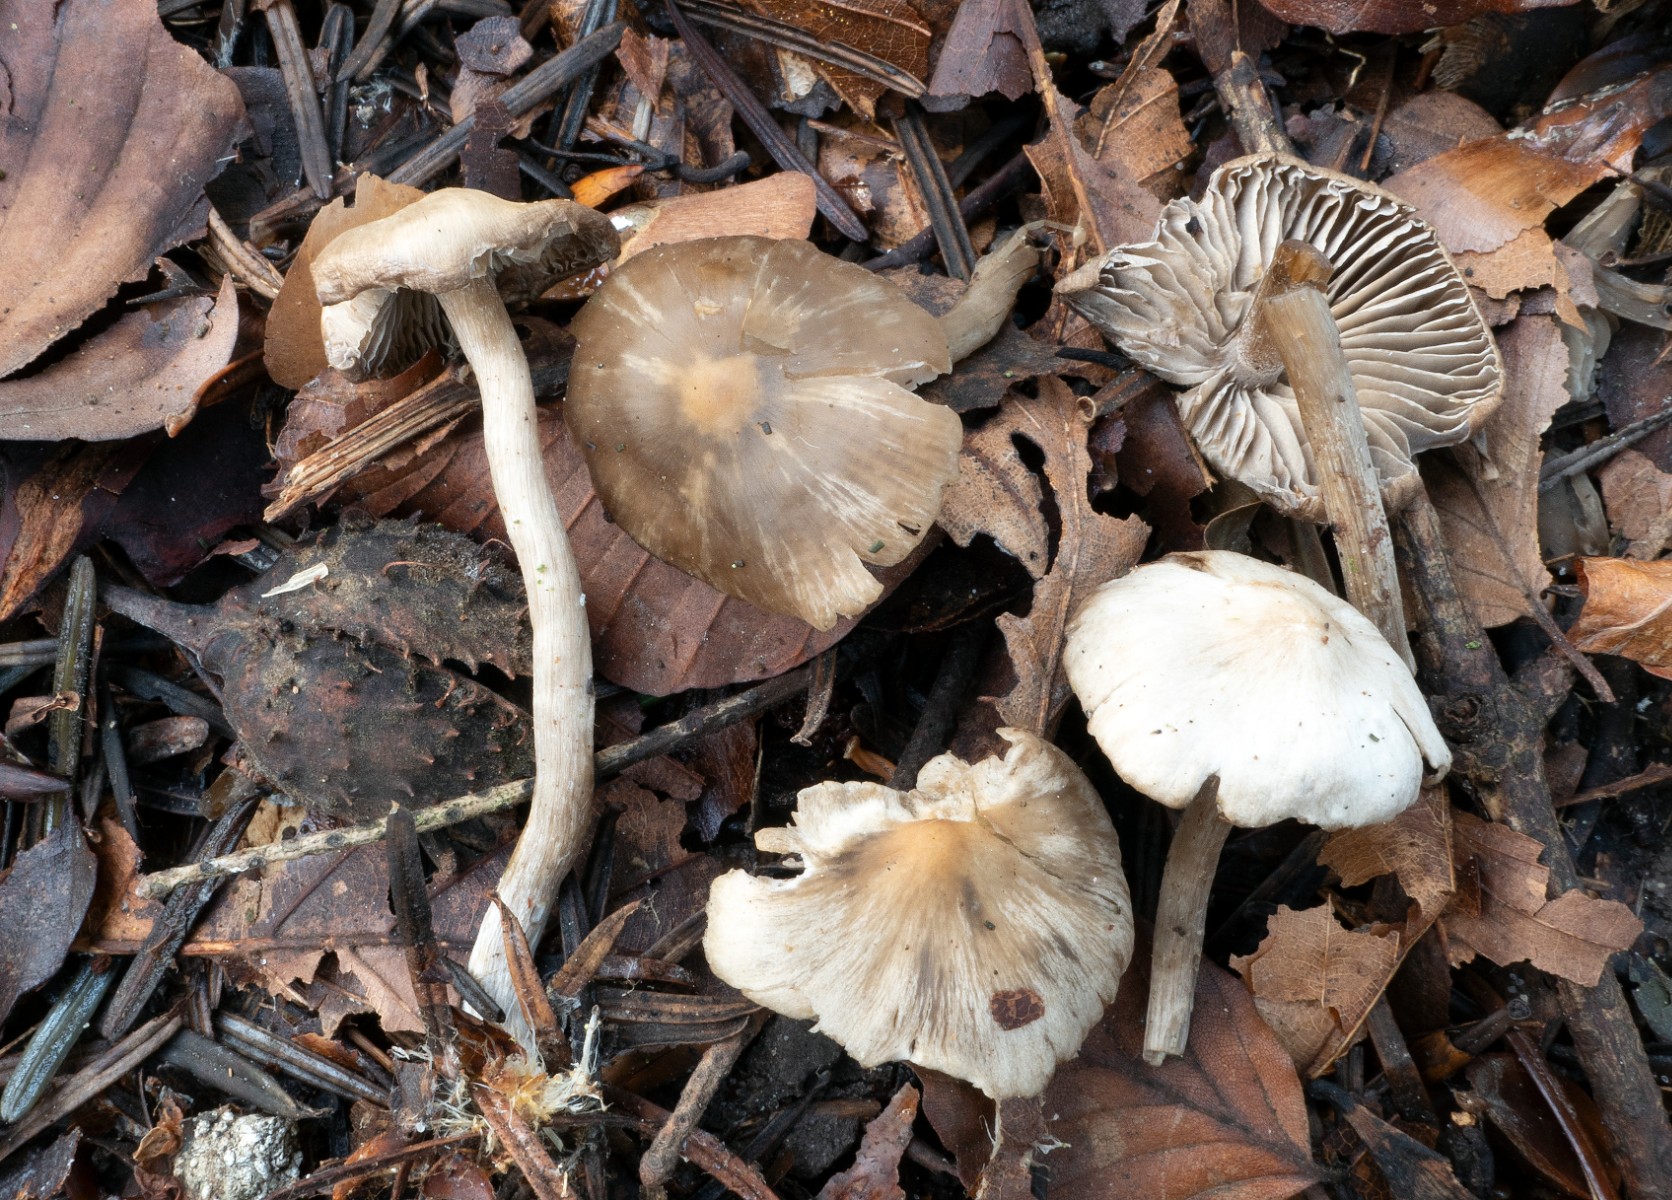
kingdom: Fungi
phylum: Basidiomycota
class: Agaricomycetes
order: Agaricales
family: Lyophyllaceae
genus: Tephrocybe
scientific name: Tephrocybe confusa
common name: trist gråblad
